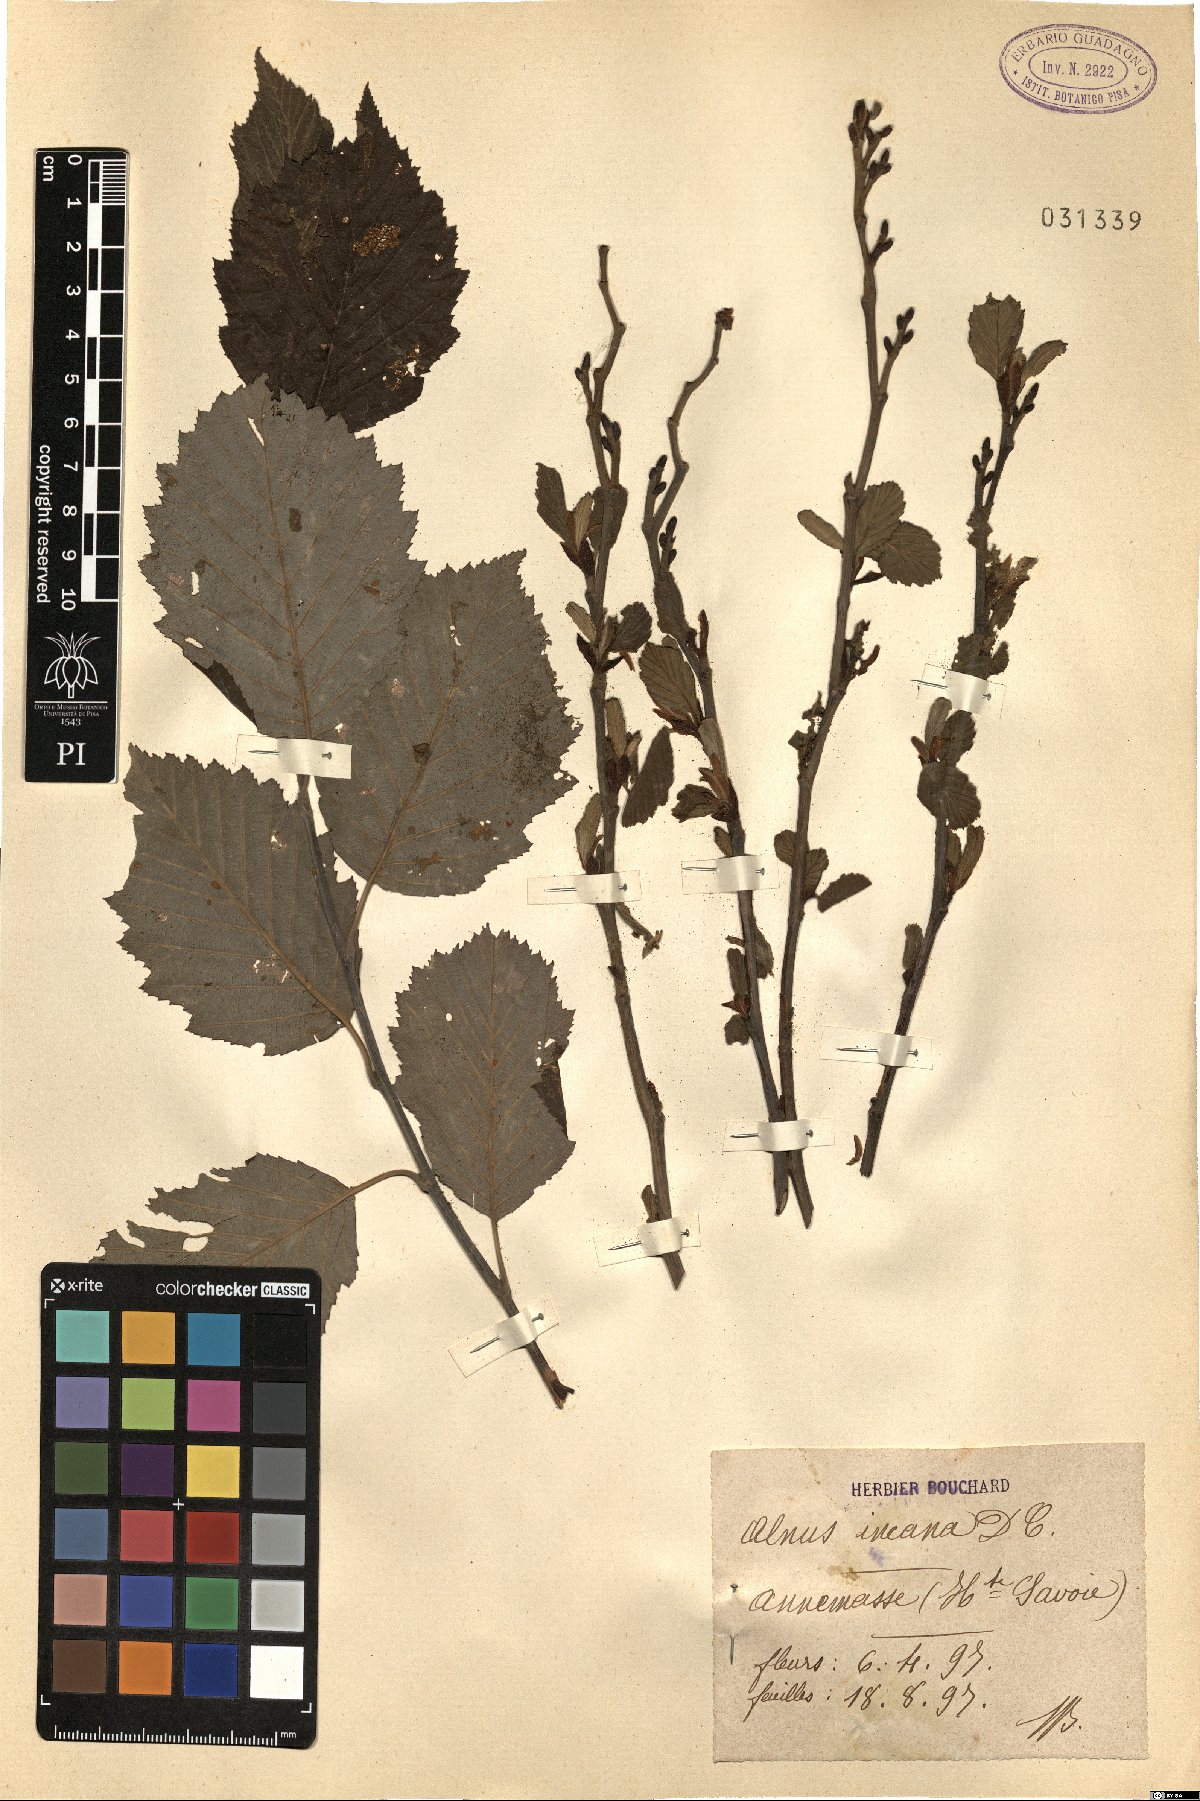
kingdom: Plantae
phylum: Tracheophyta
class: Magnoliopsida
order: Fagales
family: Betulaceae
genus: Alnus
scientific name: Alnus incana
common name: Grey alder
